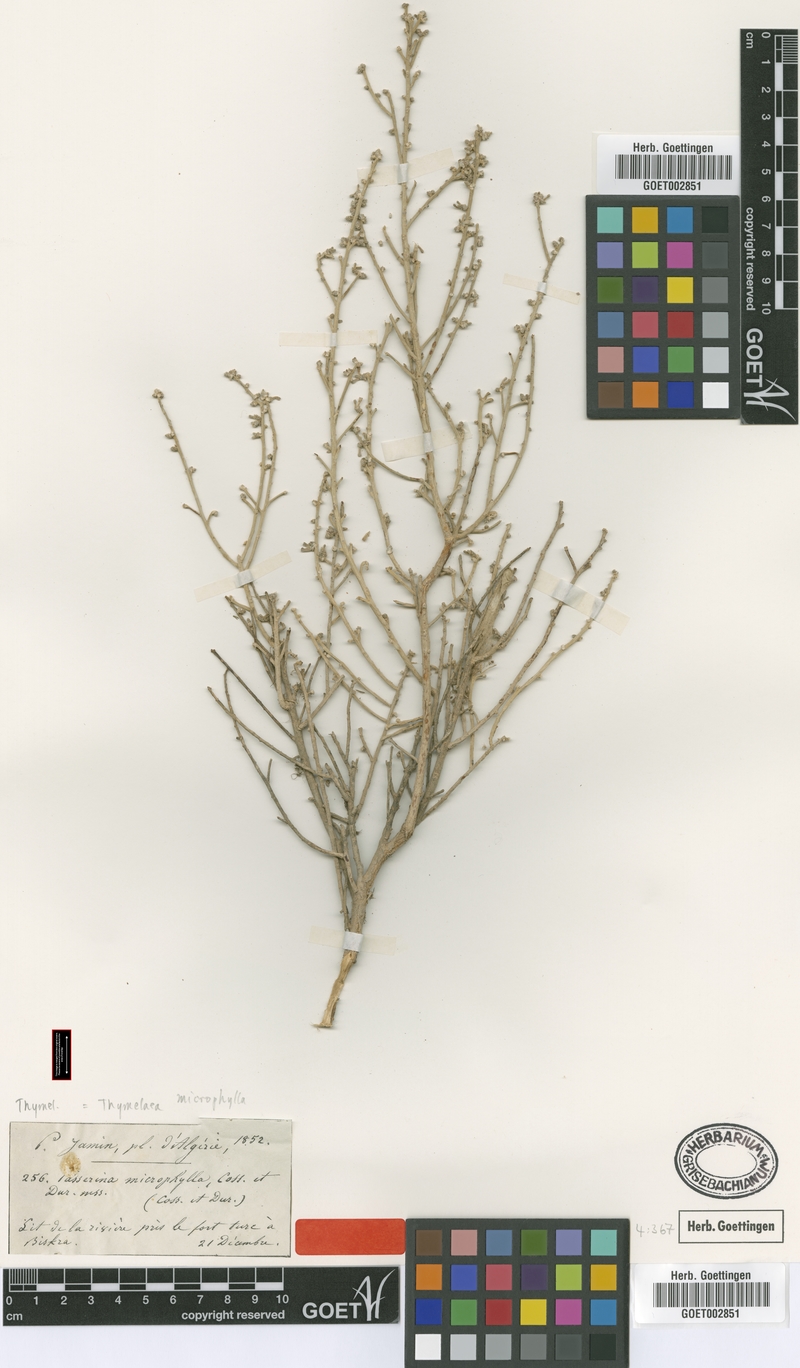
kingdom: Plantae
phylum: Tracheophyta
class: Magnoliopsida
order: Malvales
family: Thymelaeaceae
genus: Thymelaea
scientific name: Thymelaea microphylla
